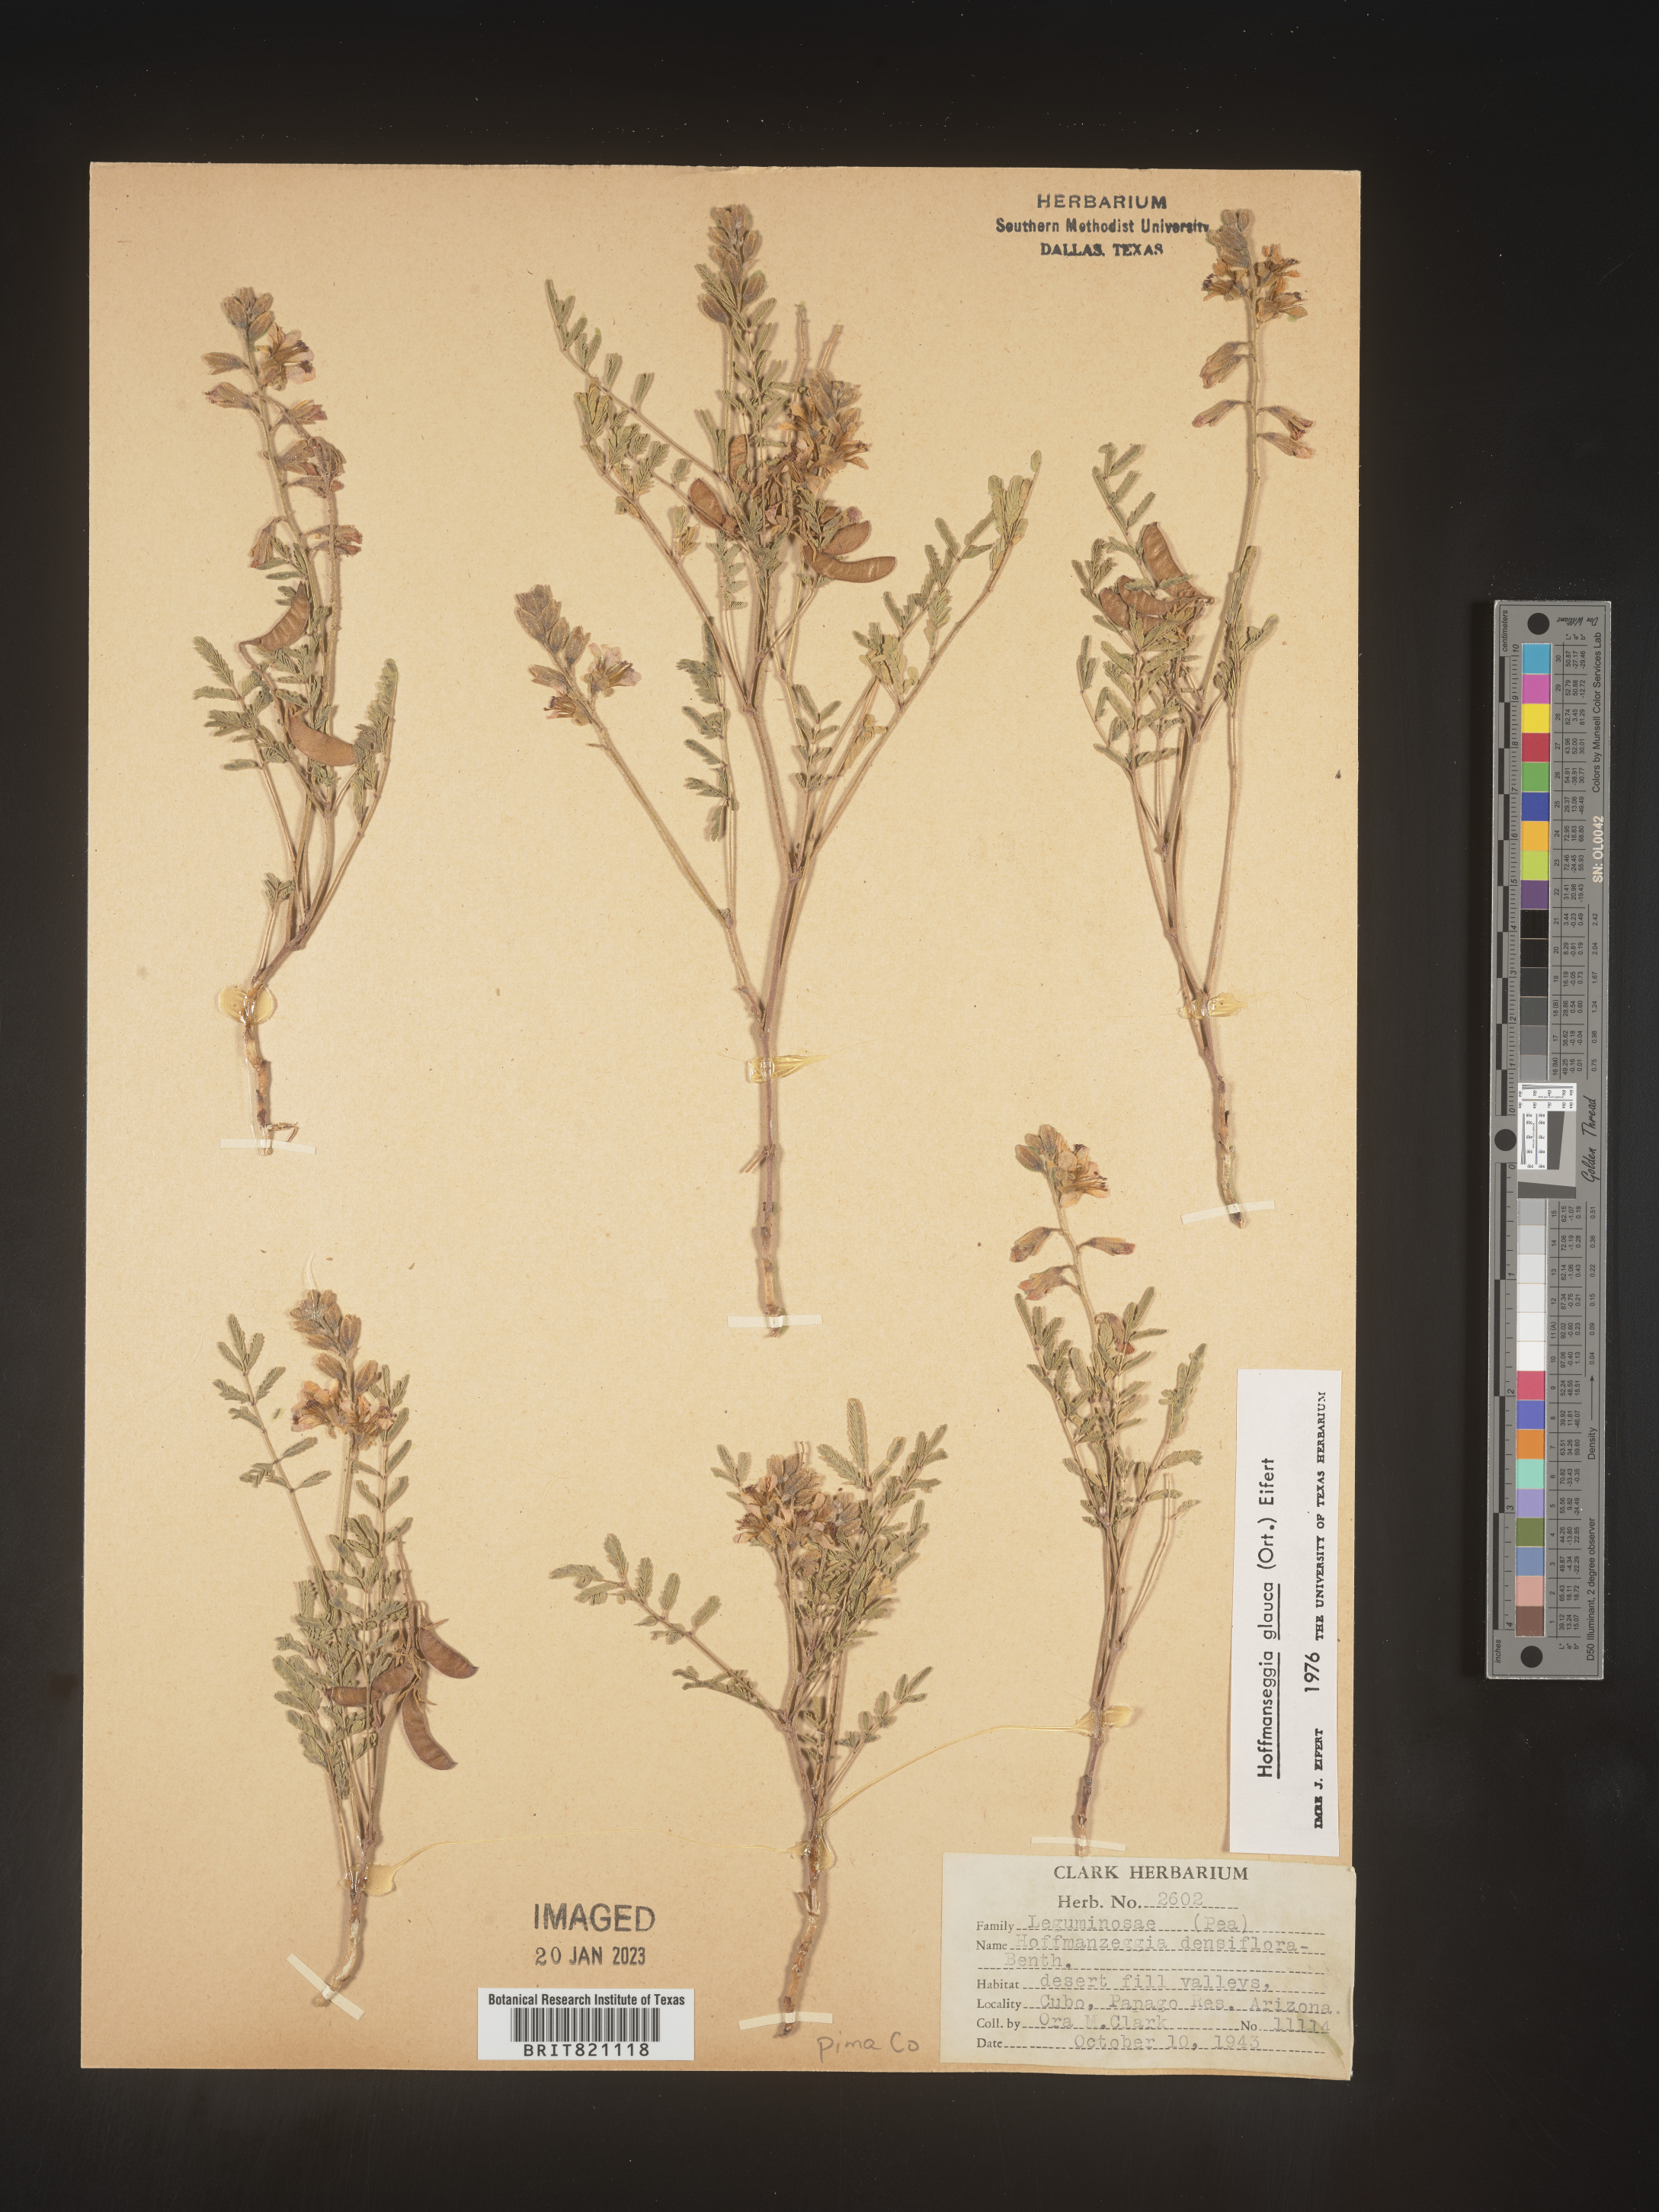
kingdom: Plantae
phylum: Tracheophyta
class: Magnoliopsida
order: Fabales
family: Fabaceae
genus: Hoffmannseggia
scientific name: Hoffmannseggia
